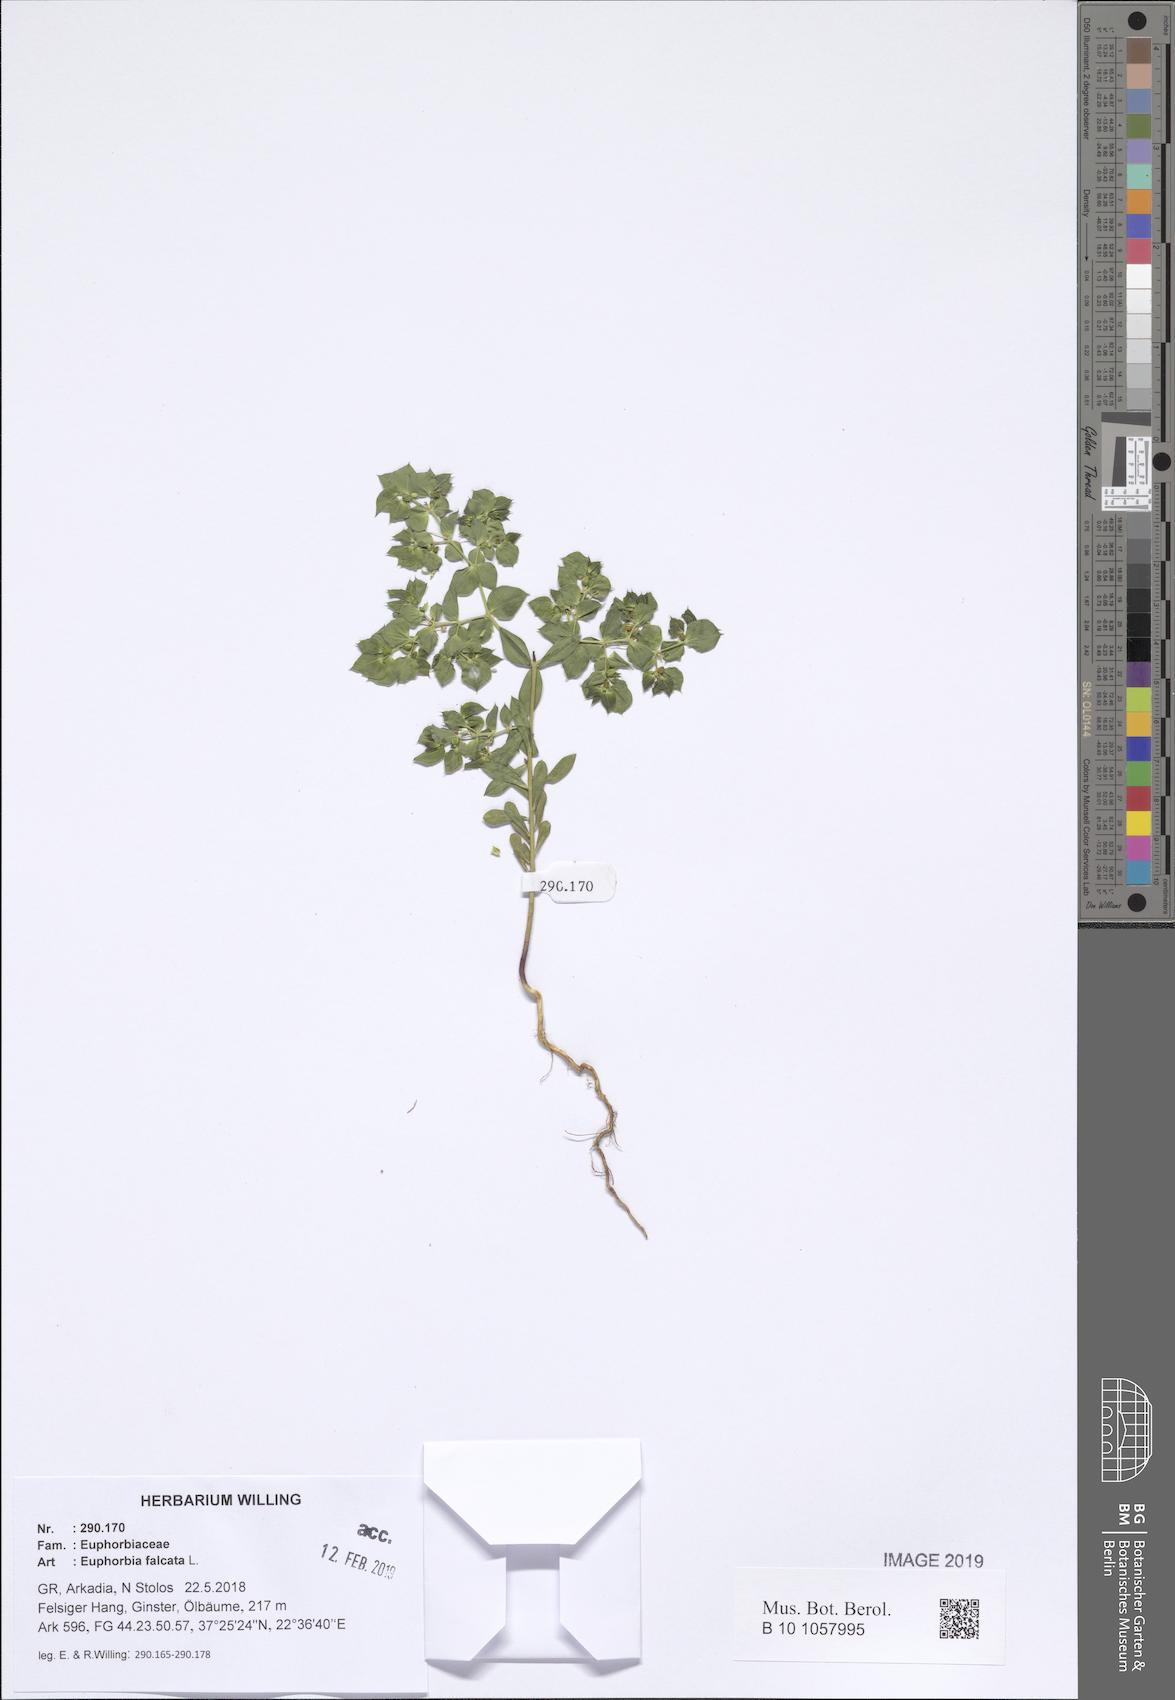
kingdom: Plantae
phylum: Tracheophyta
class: Magnoliopsida
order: Malpighiales
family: Euphorbiaceae
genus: Euphorbia
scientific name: Euphorbia falcata
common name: Sickle spurge
